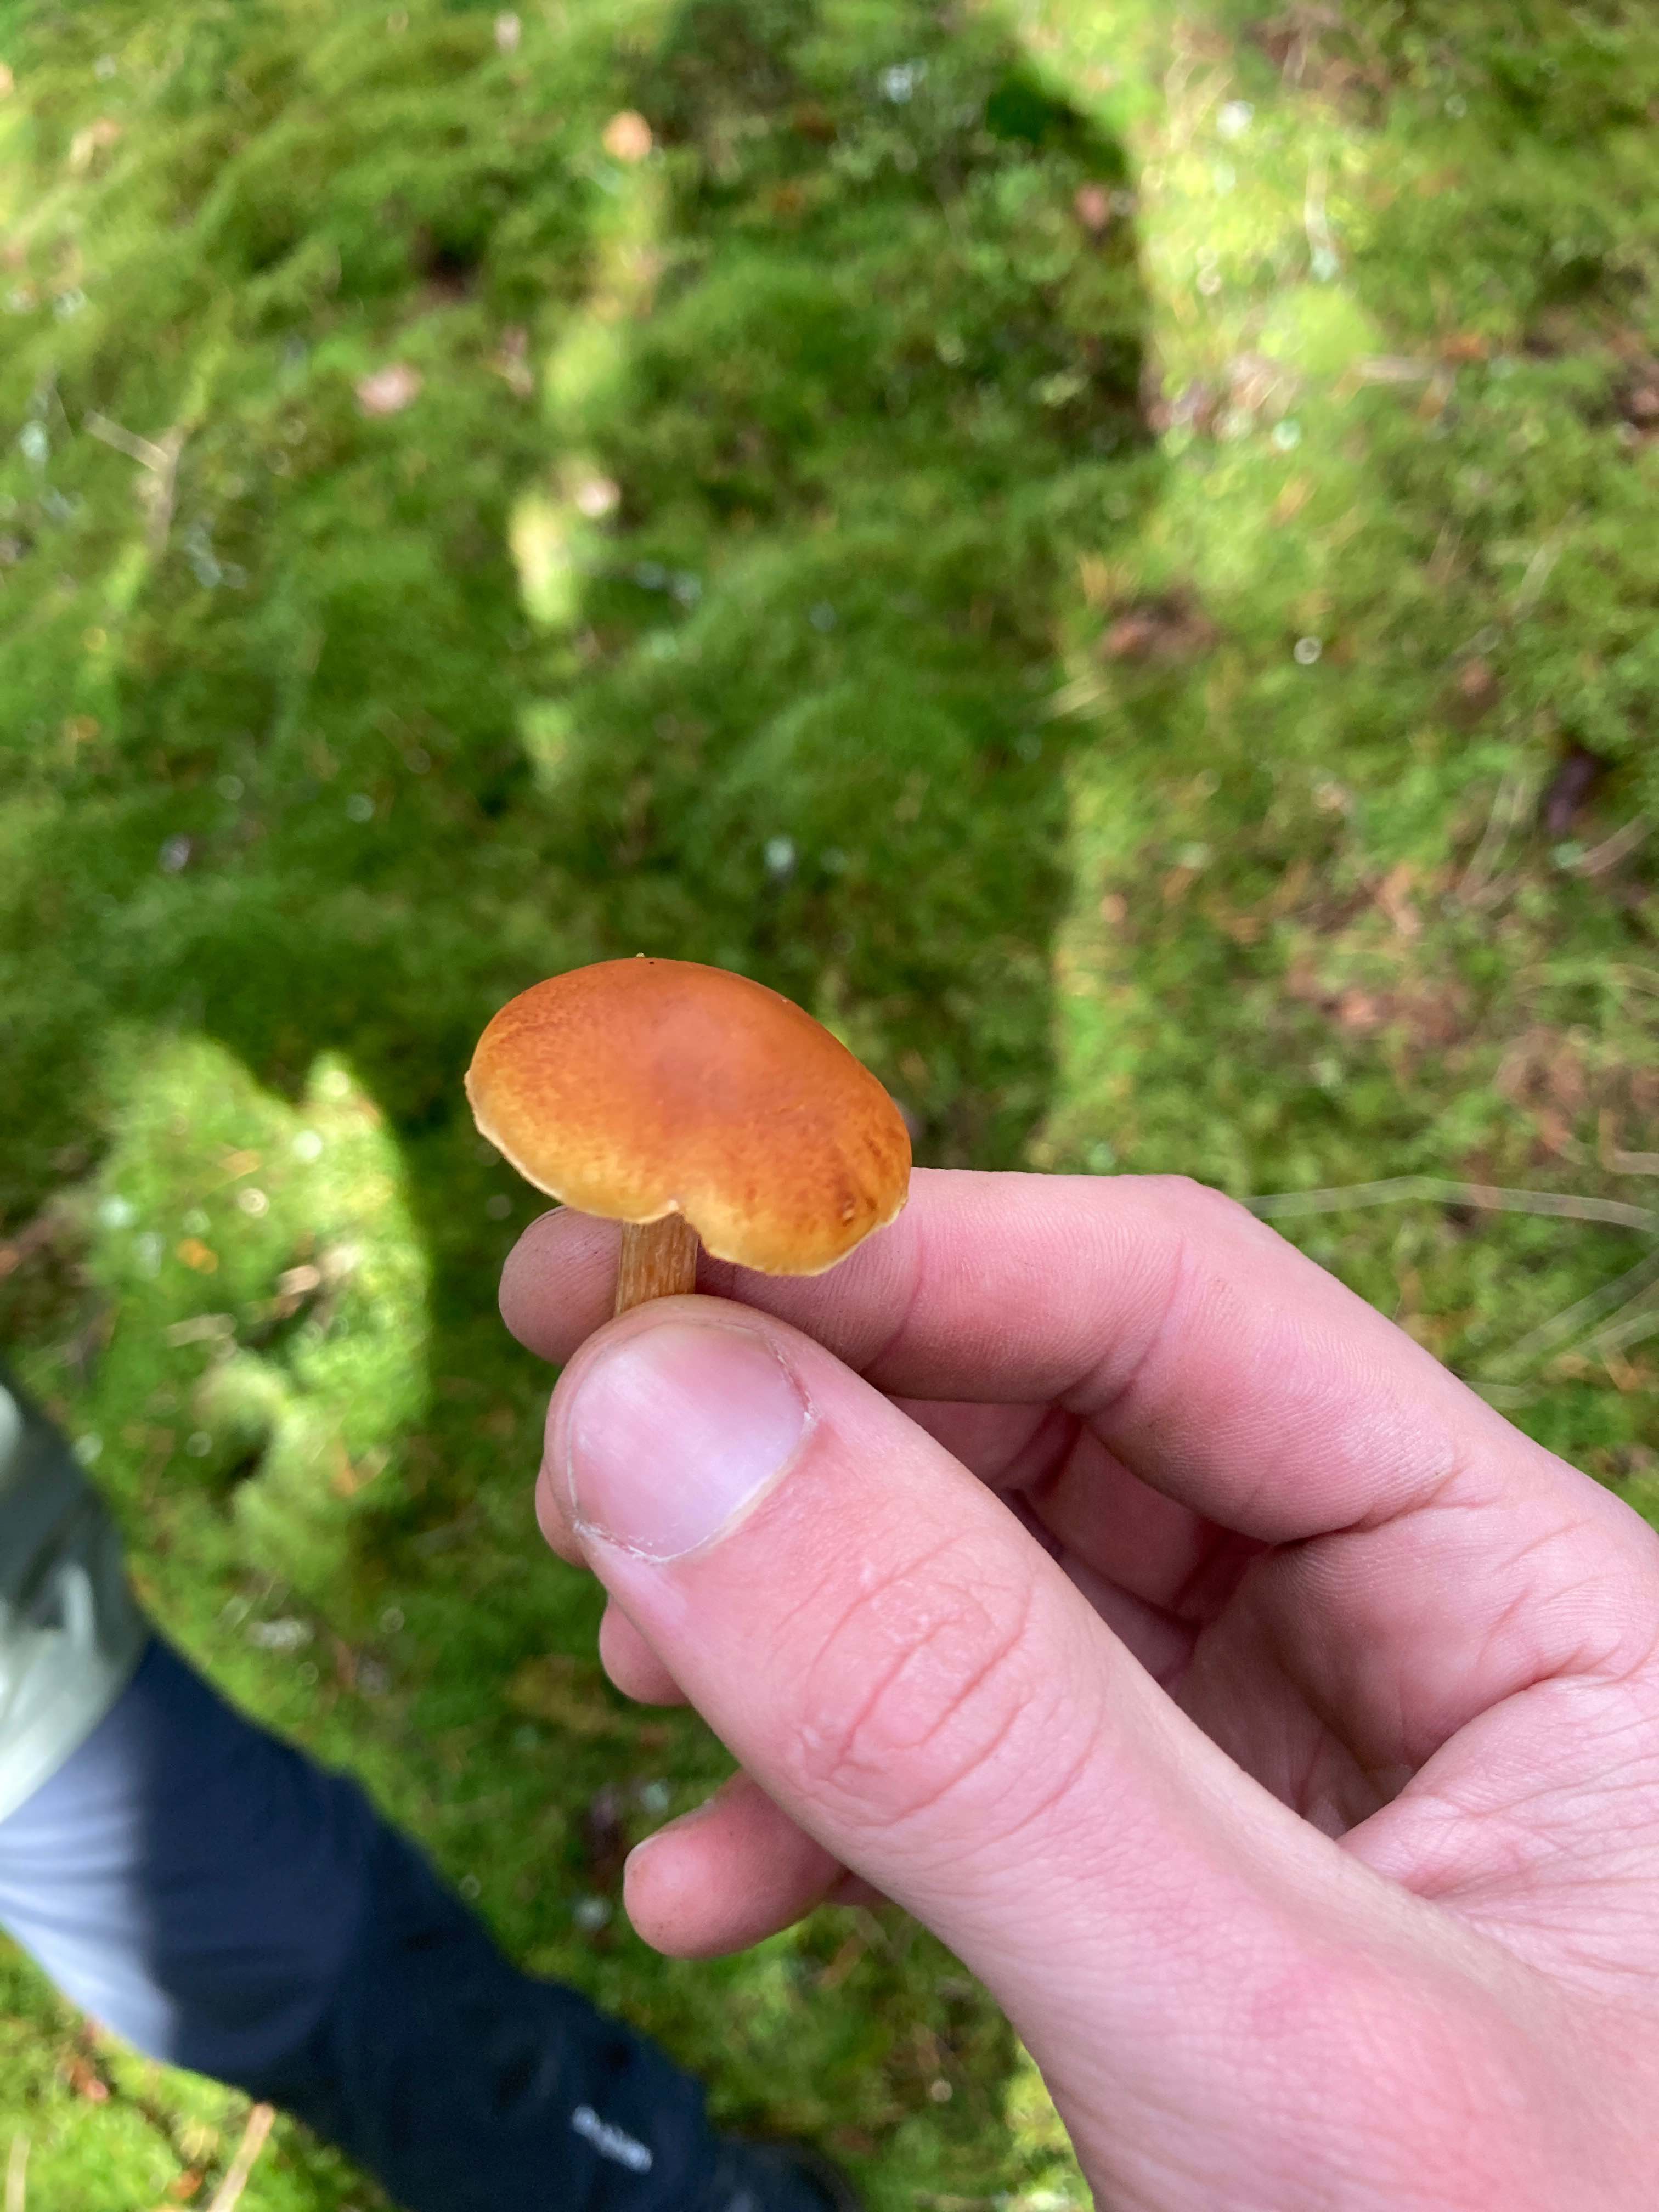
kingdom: Fungi
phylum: Basidiomycota
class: Agaricomycetes
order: Agaricales
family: Hymenogastraceae
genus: Gymnopilus
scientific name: Gymnopilus penetrans
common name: plettet flammehat
